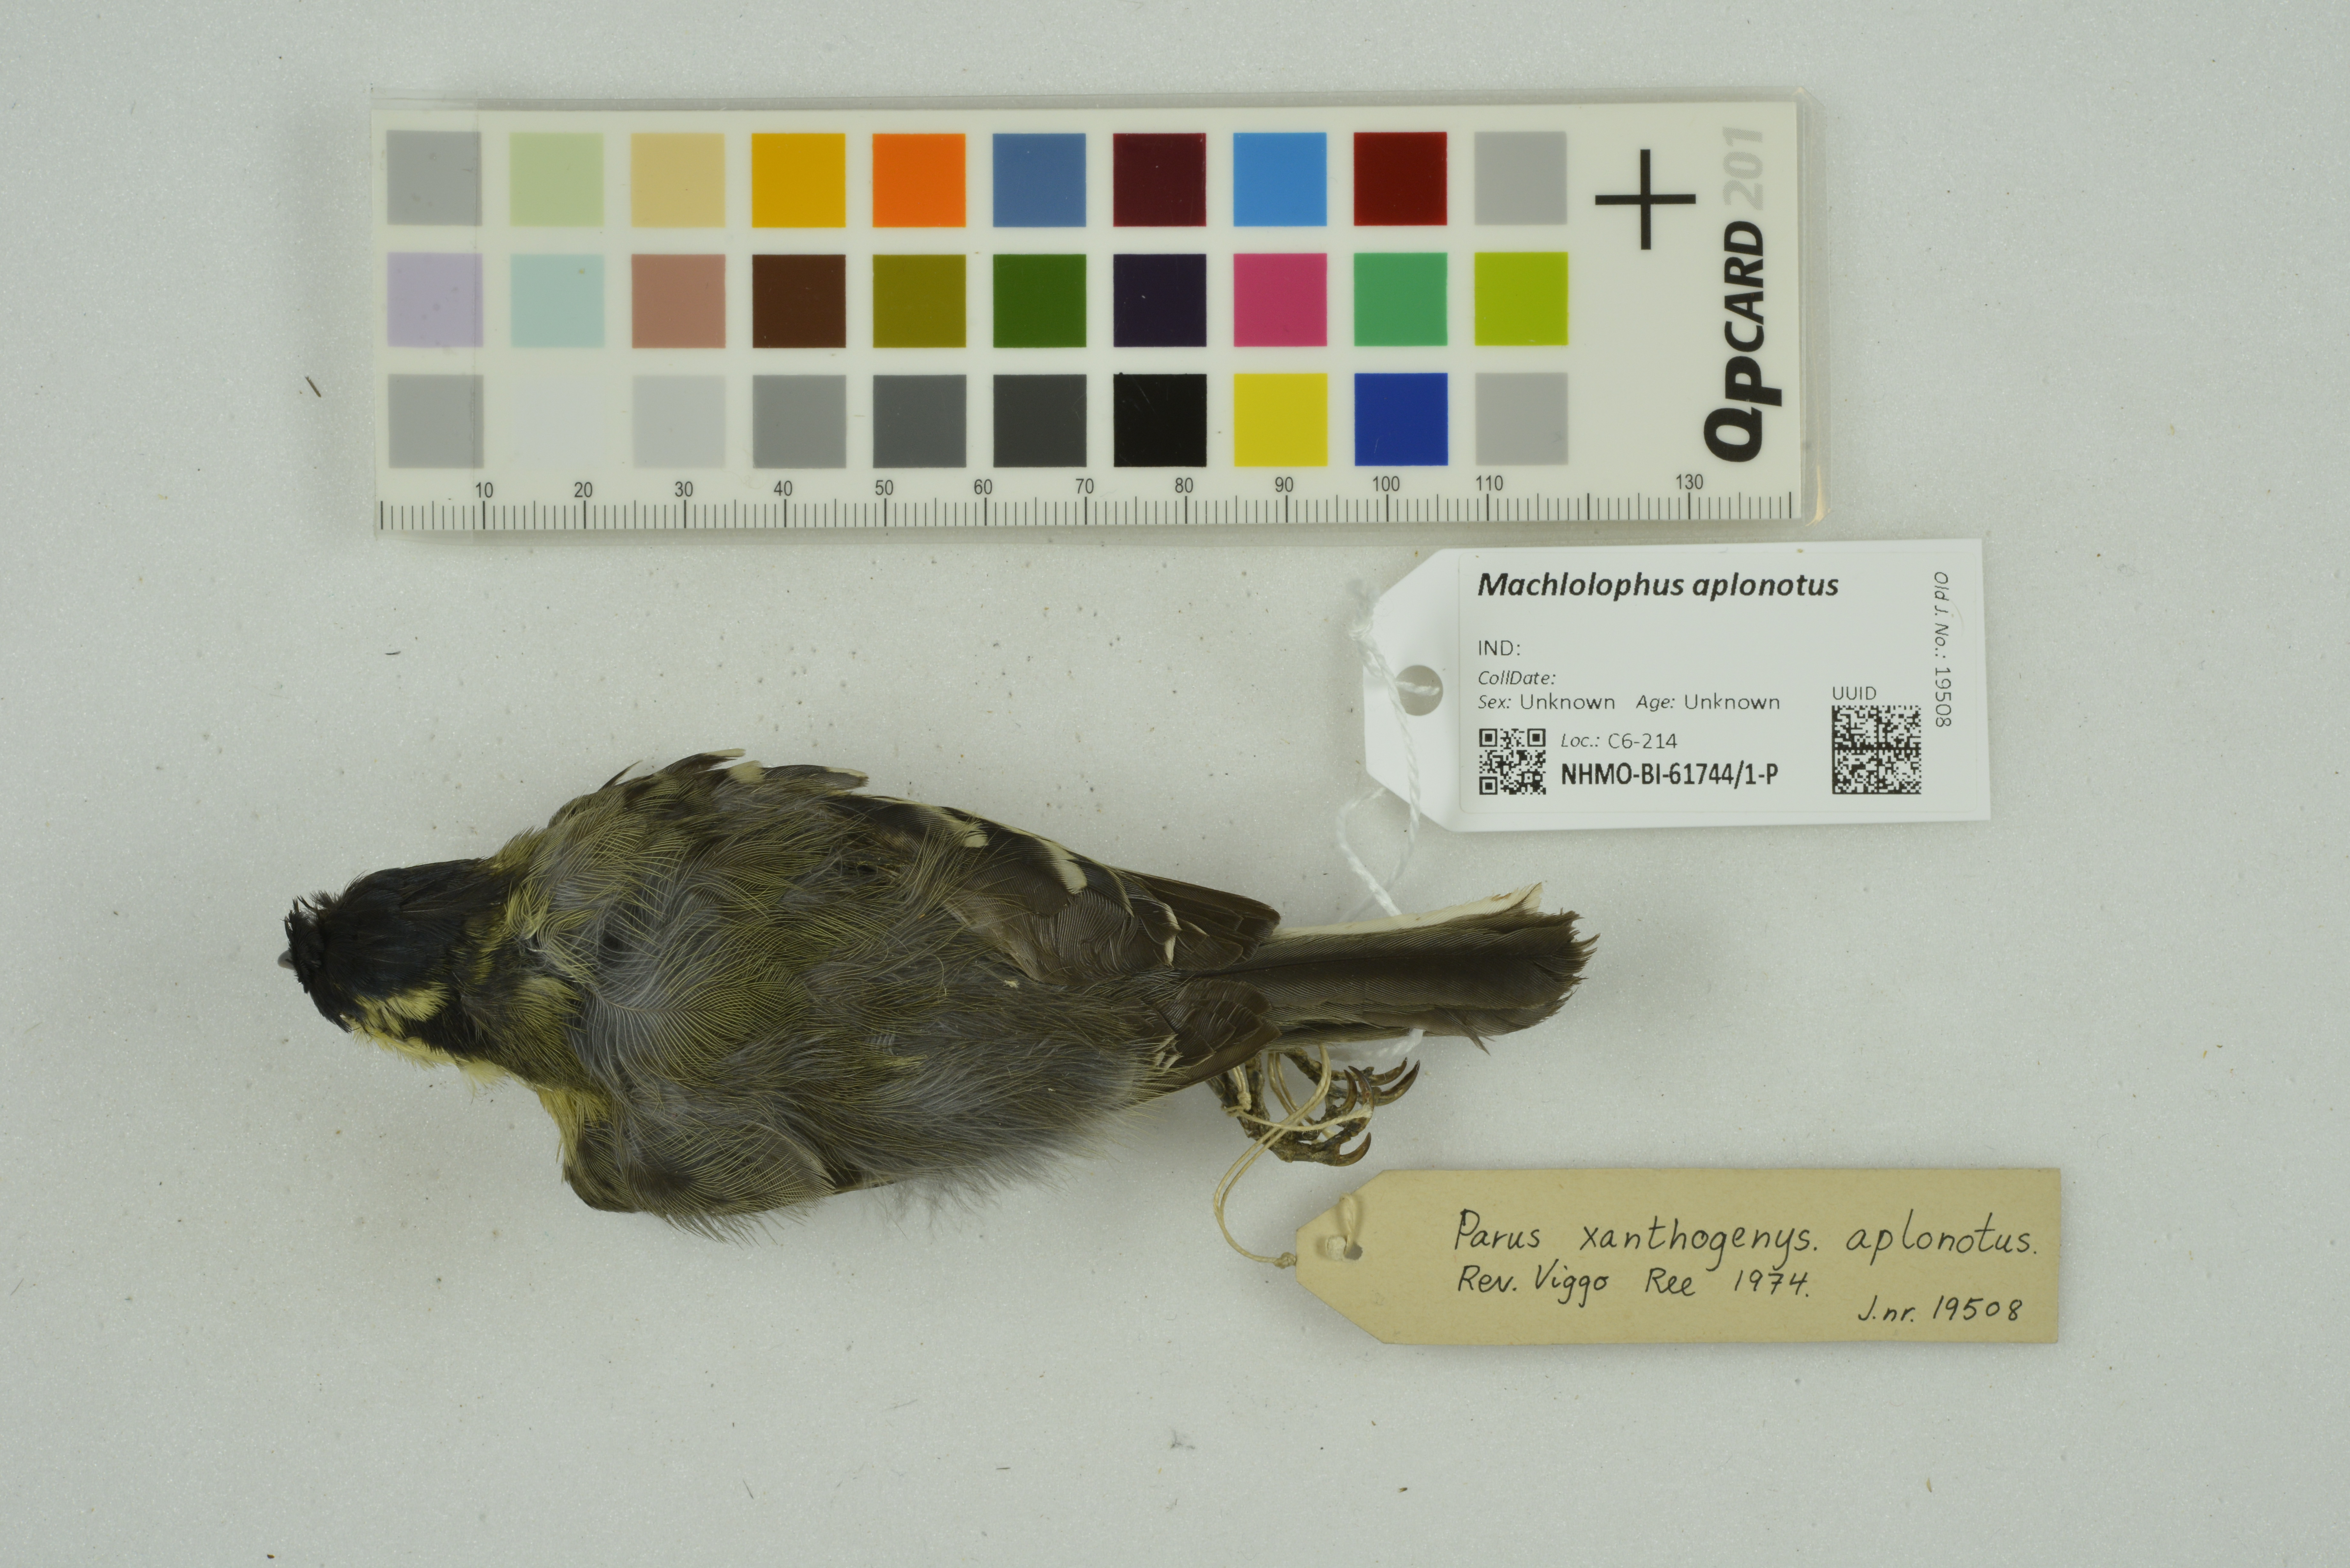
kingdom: Animalia
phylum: Chordata
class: Aves
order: Passeriformes
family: Paridae
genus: Parus
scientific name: Parus aplonotus
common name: Indian black-lored tit
